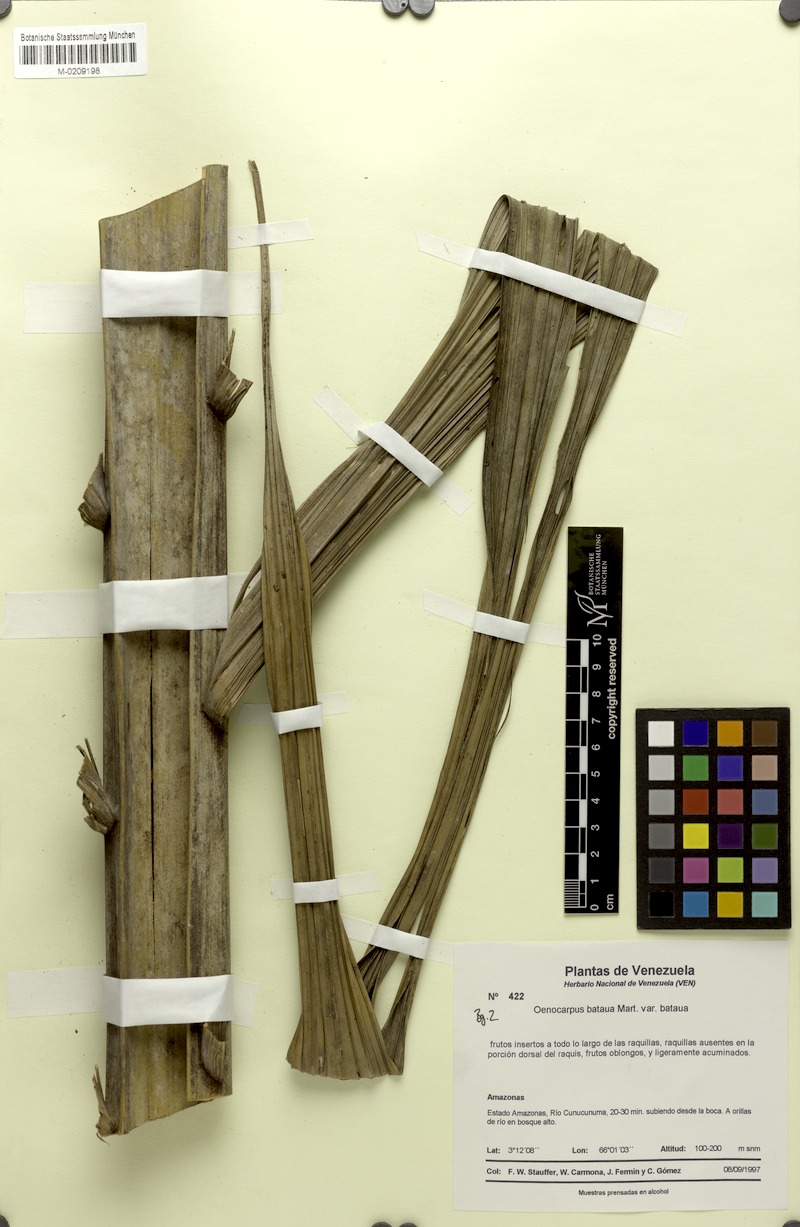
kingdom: Plantae
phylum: Tracheophyta
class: Liliopsida
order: Arecales
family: Arecaceae
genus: Oenocarpus
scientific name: Oenocarpus bataua
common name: Bataua palm
